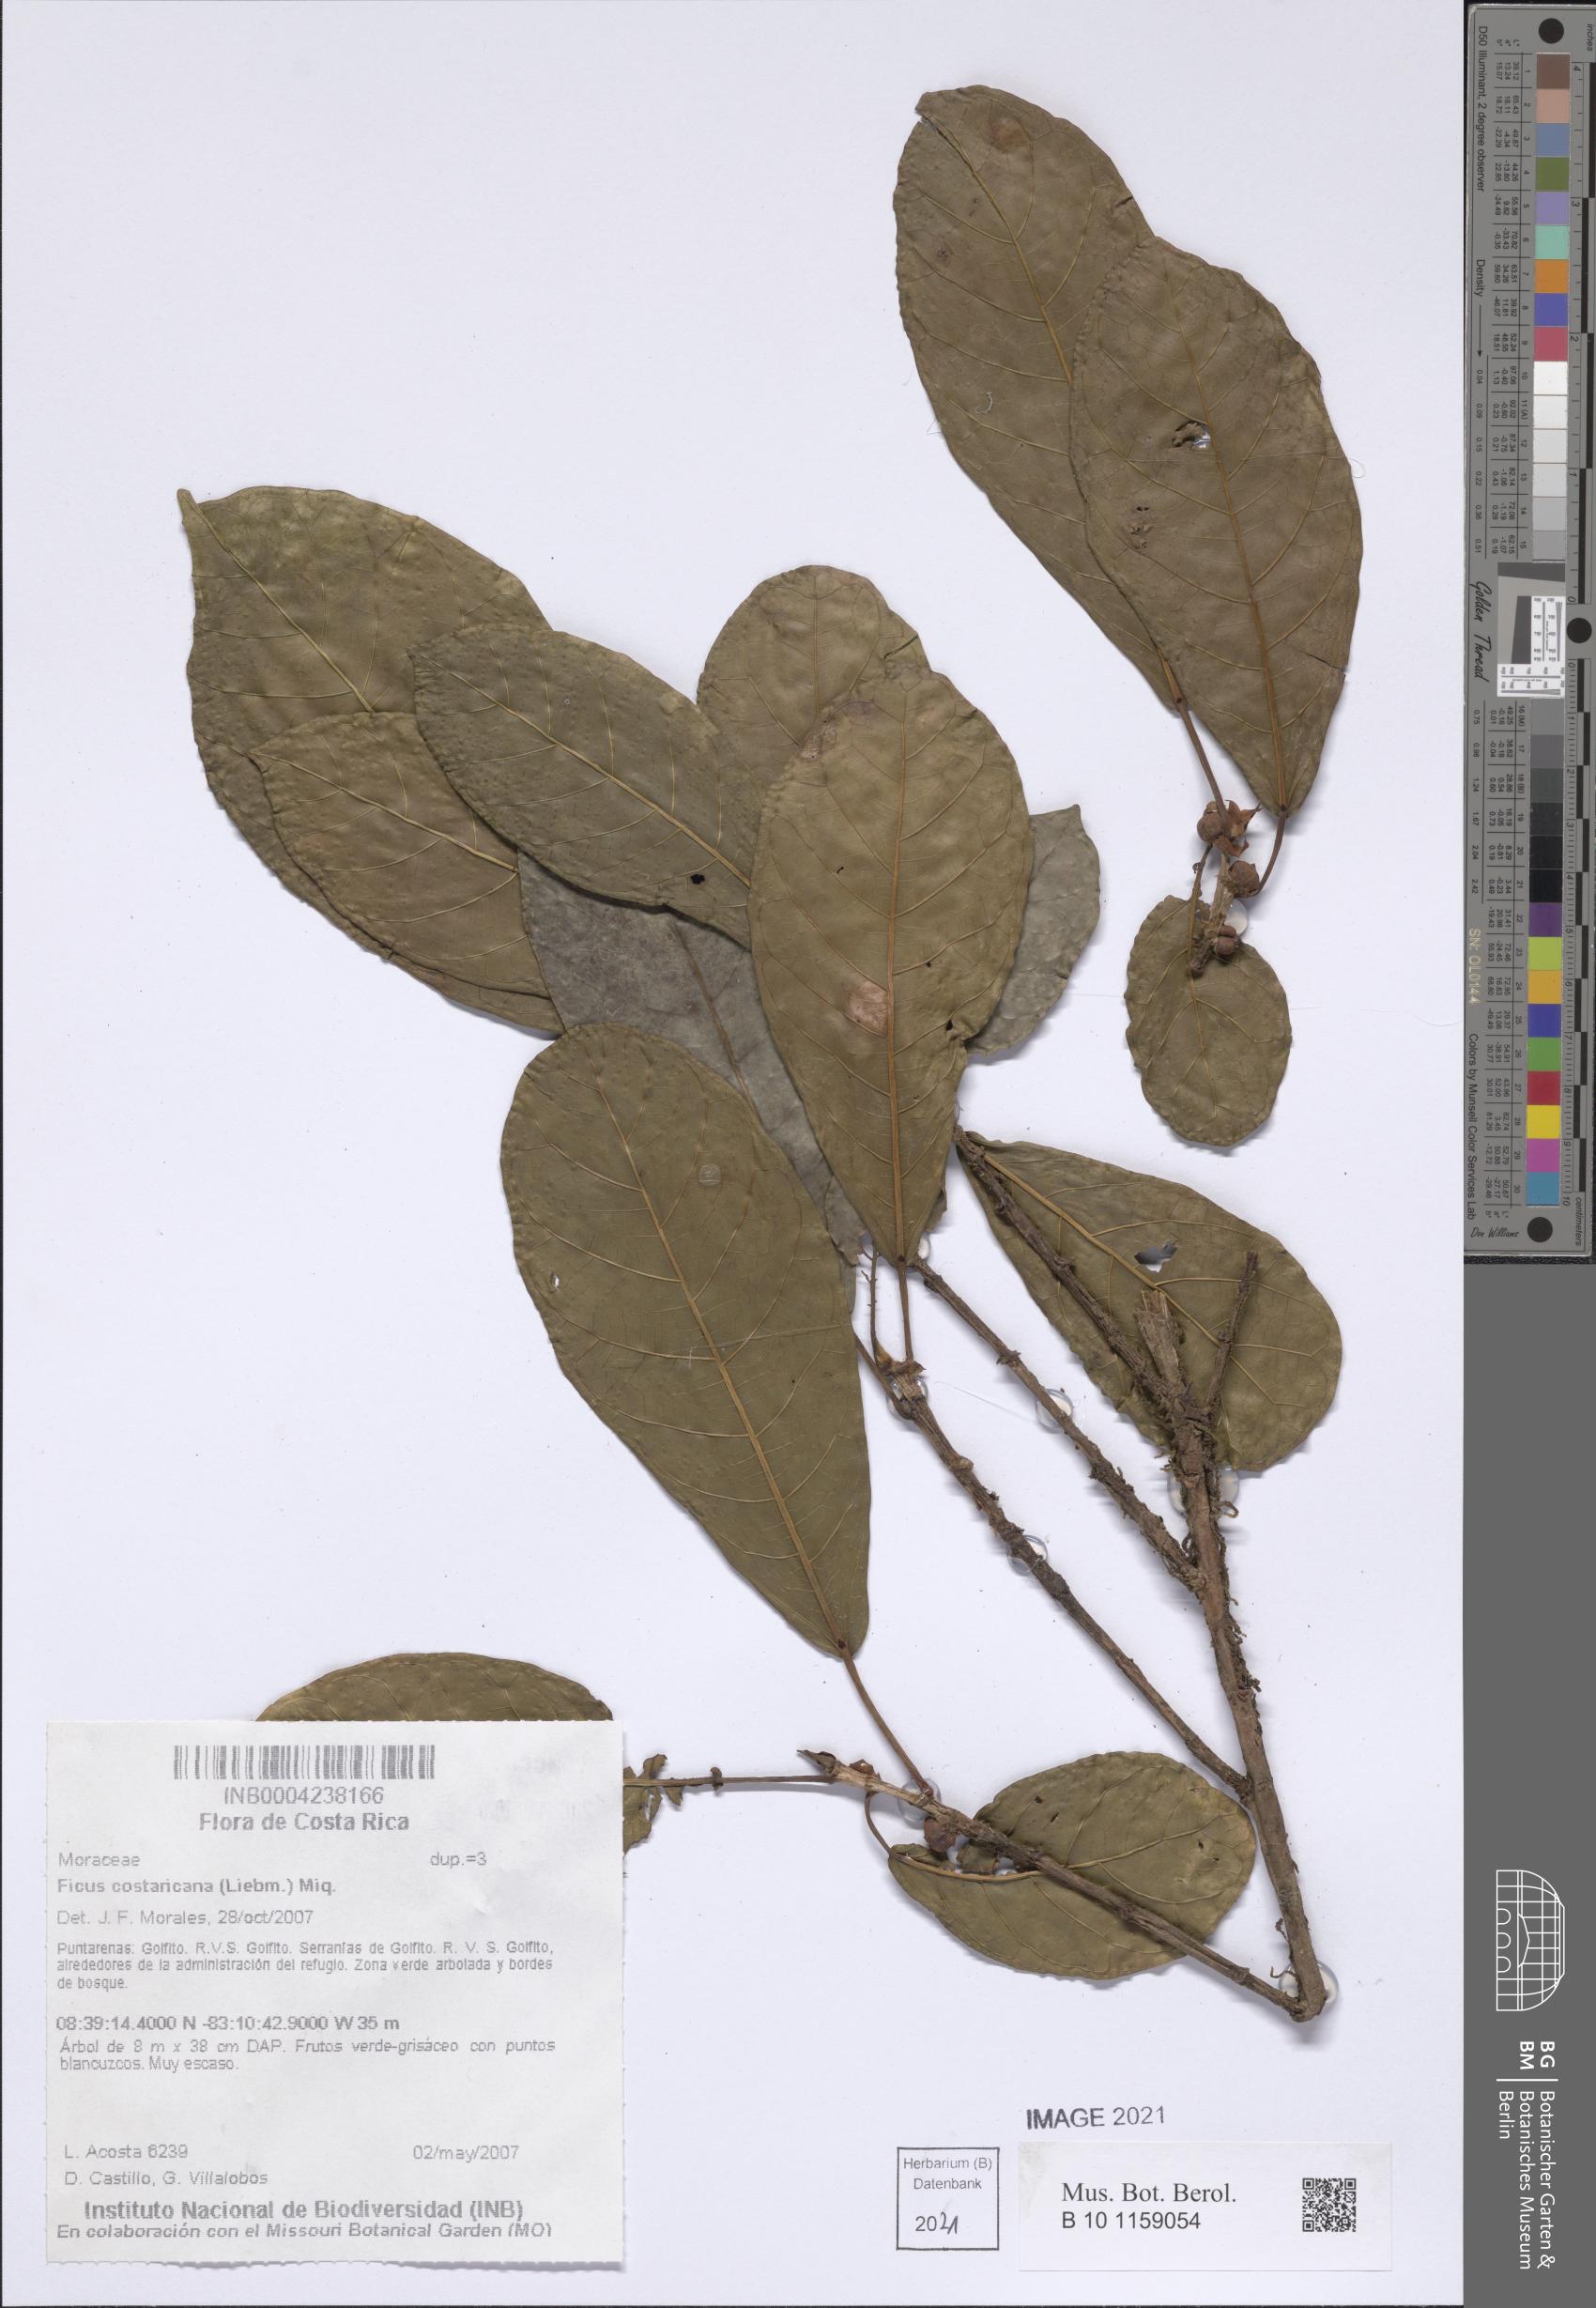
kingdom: Plantae
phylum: Tracheophyta
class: Magnoliopsida
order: Rosales
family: Moraceae
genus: Ficus
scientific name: Ficus costaricana
